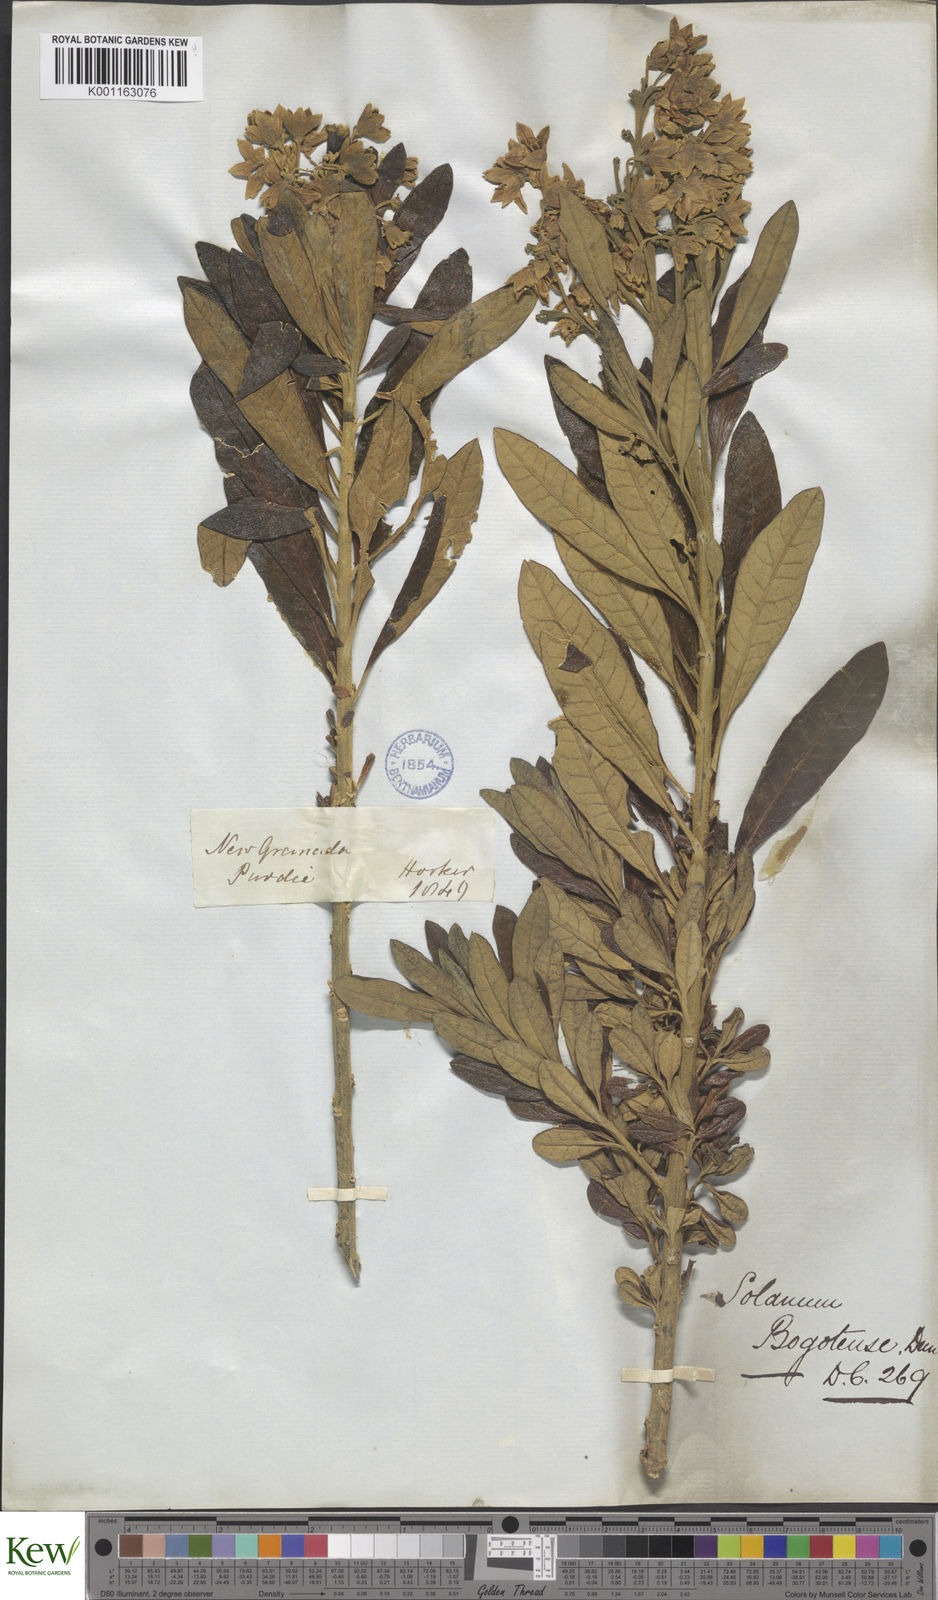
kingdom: Plantae
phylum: Tracheophyta
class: Magnoliopsida
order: Solanales
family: Solanaceae
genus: Solanum
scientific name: Solanum stenophyllum
